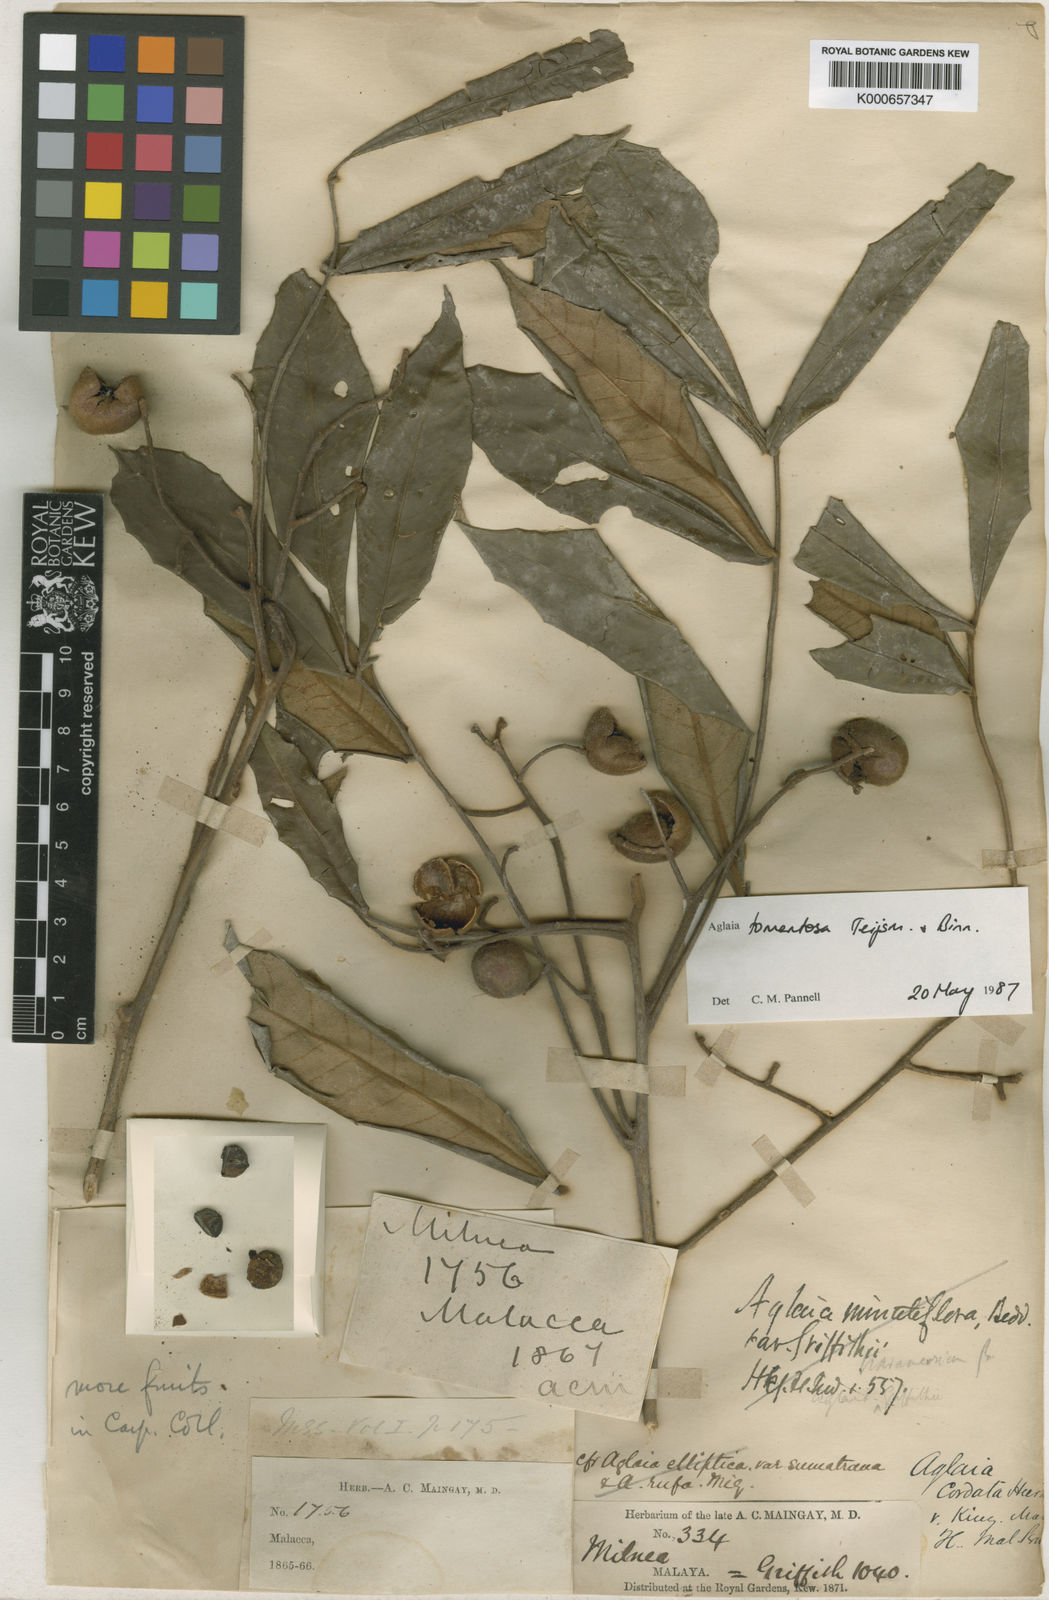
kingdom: Plantae
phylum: Tracheophyta
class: Magnoliopsida
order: Sapindales
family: Meliaceae
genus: Aglaia
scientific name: Aglaia tomentosa
